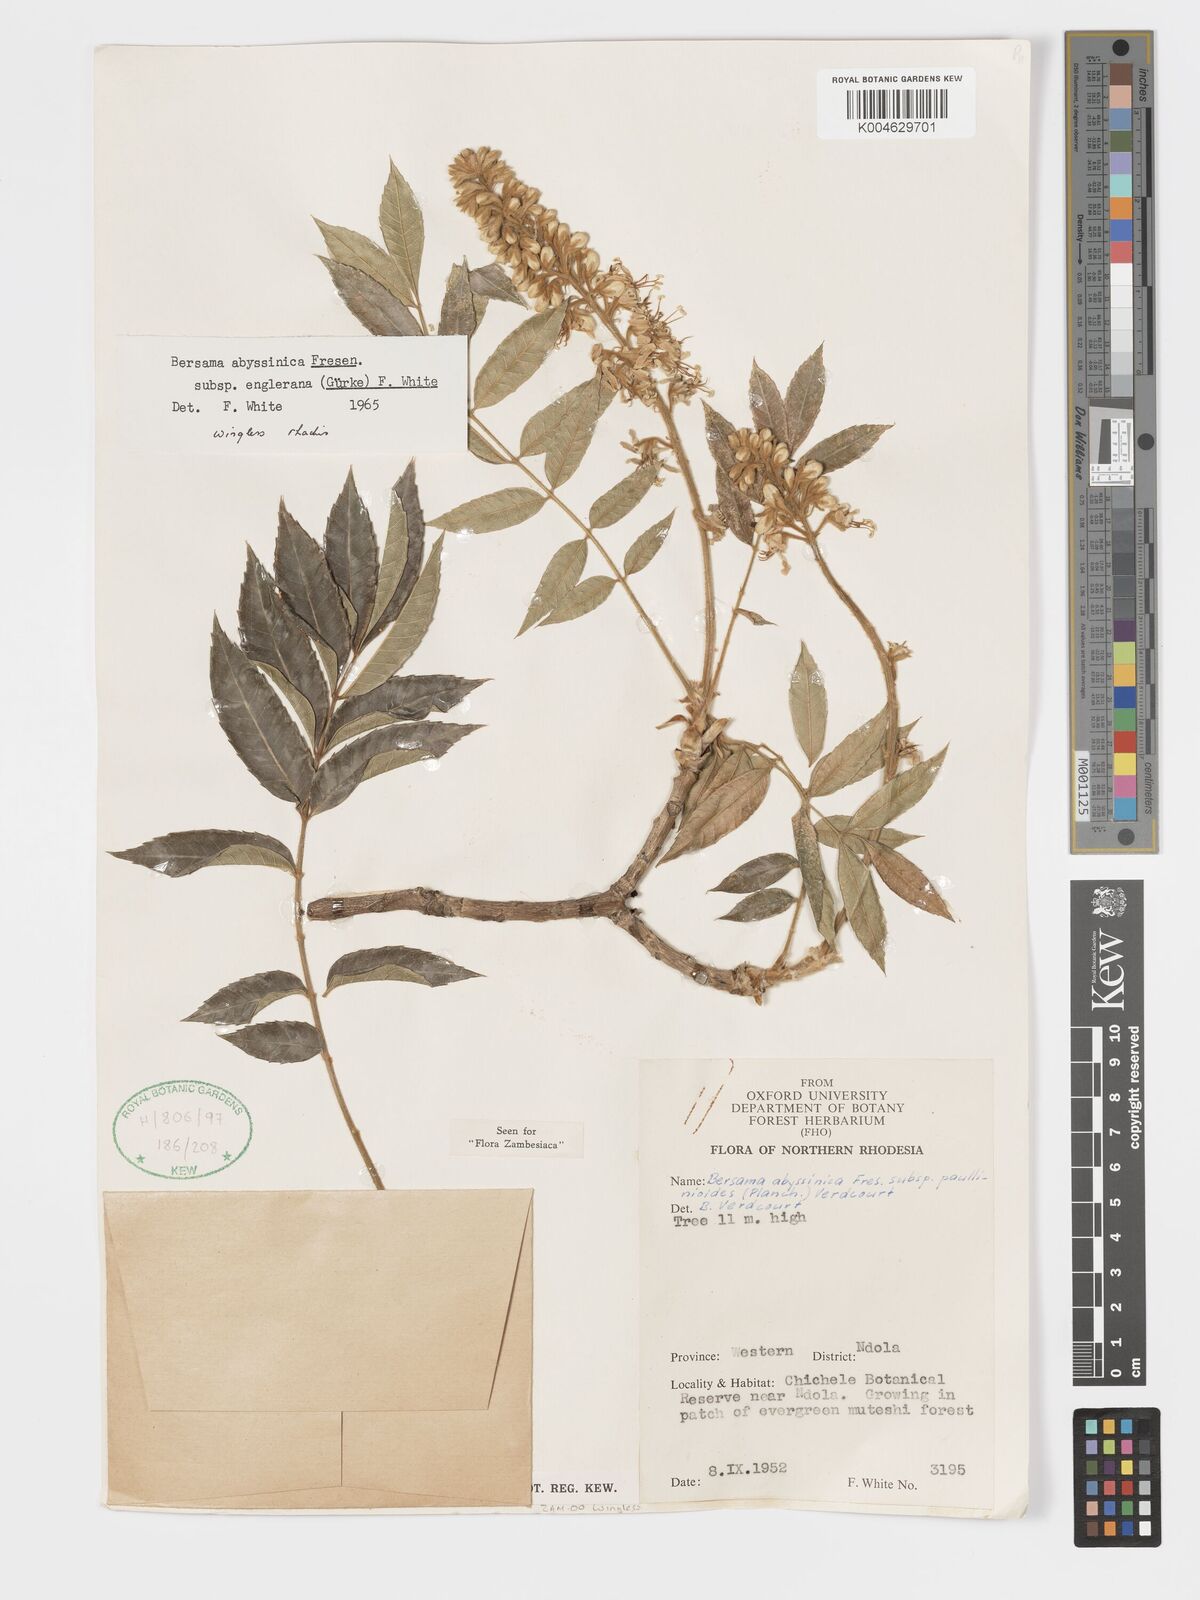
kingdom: Plantae
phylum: Tracheophyta
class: Magnoliopsida
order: Geraniales
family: Melianthaceae
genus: Bersama
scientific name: Bersama abyssinica
